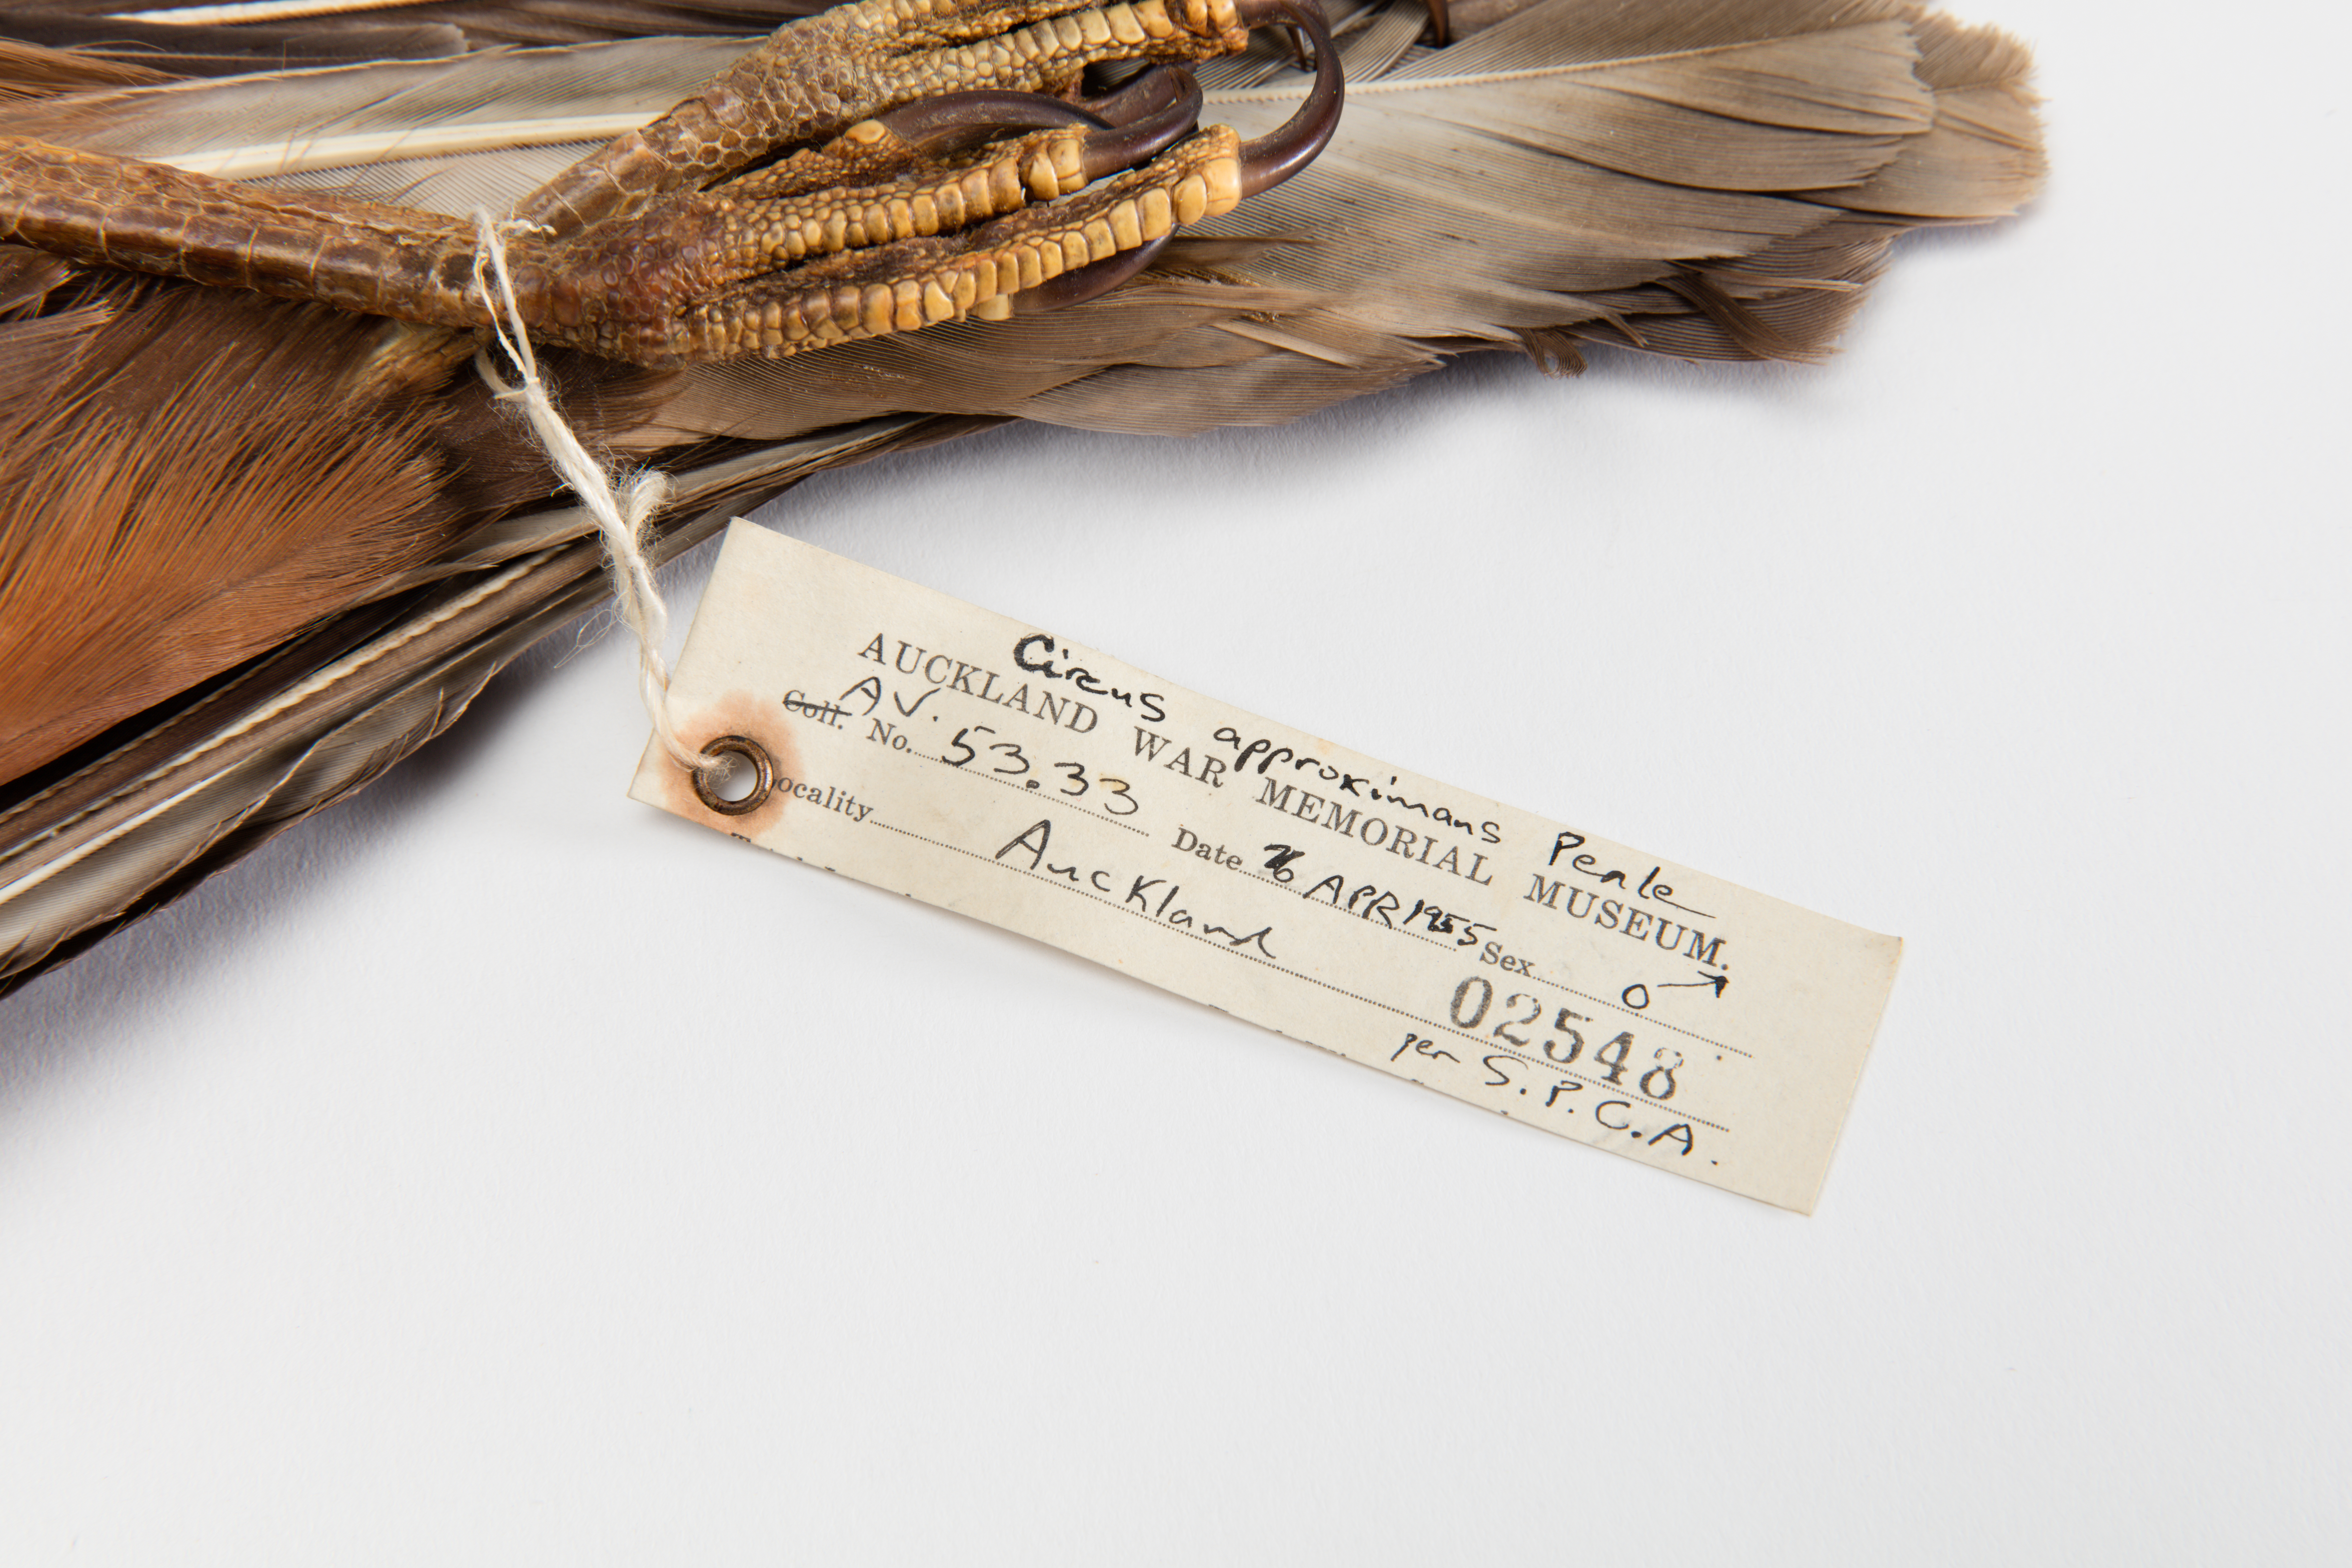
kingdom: Animalia
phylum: Chordata
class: Aves
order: Accipitriformes
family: Accipitridae
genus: Circus
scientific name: Circus approximans
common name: Swamp harrier
